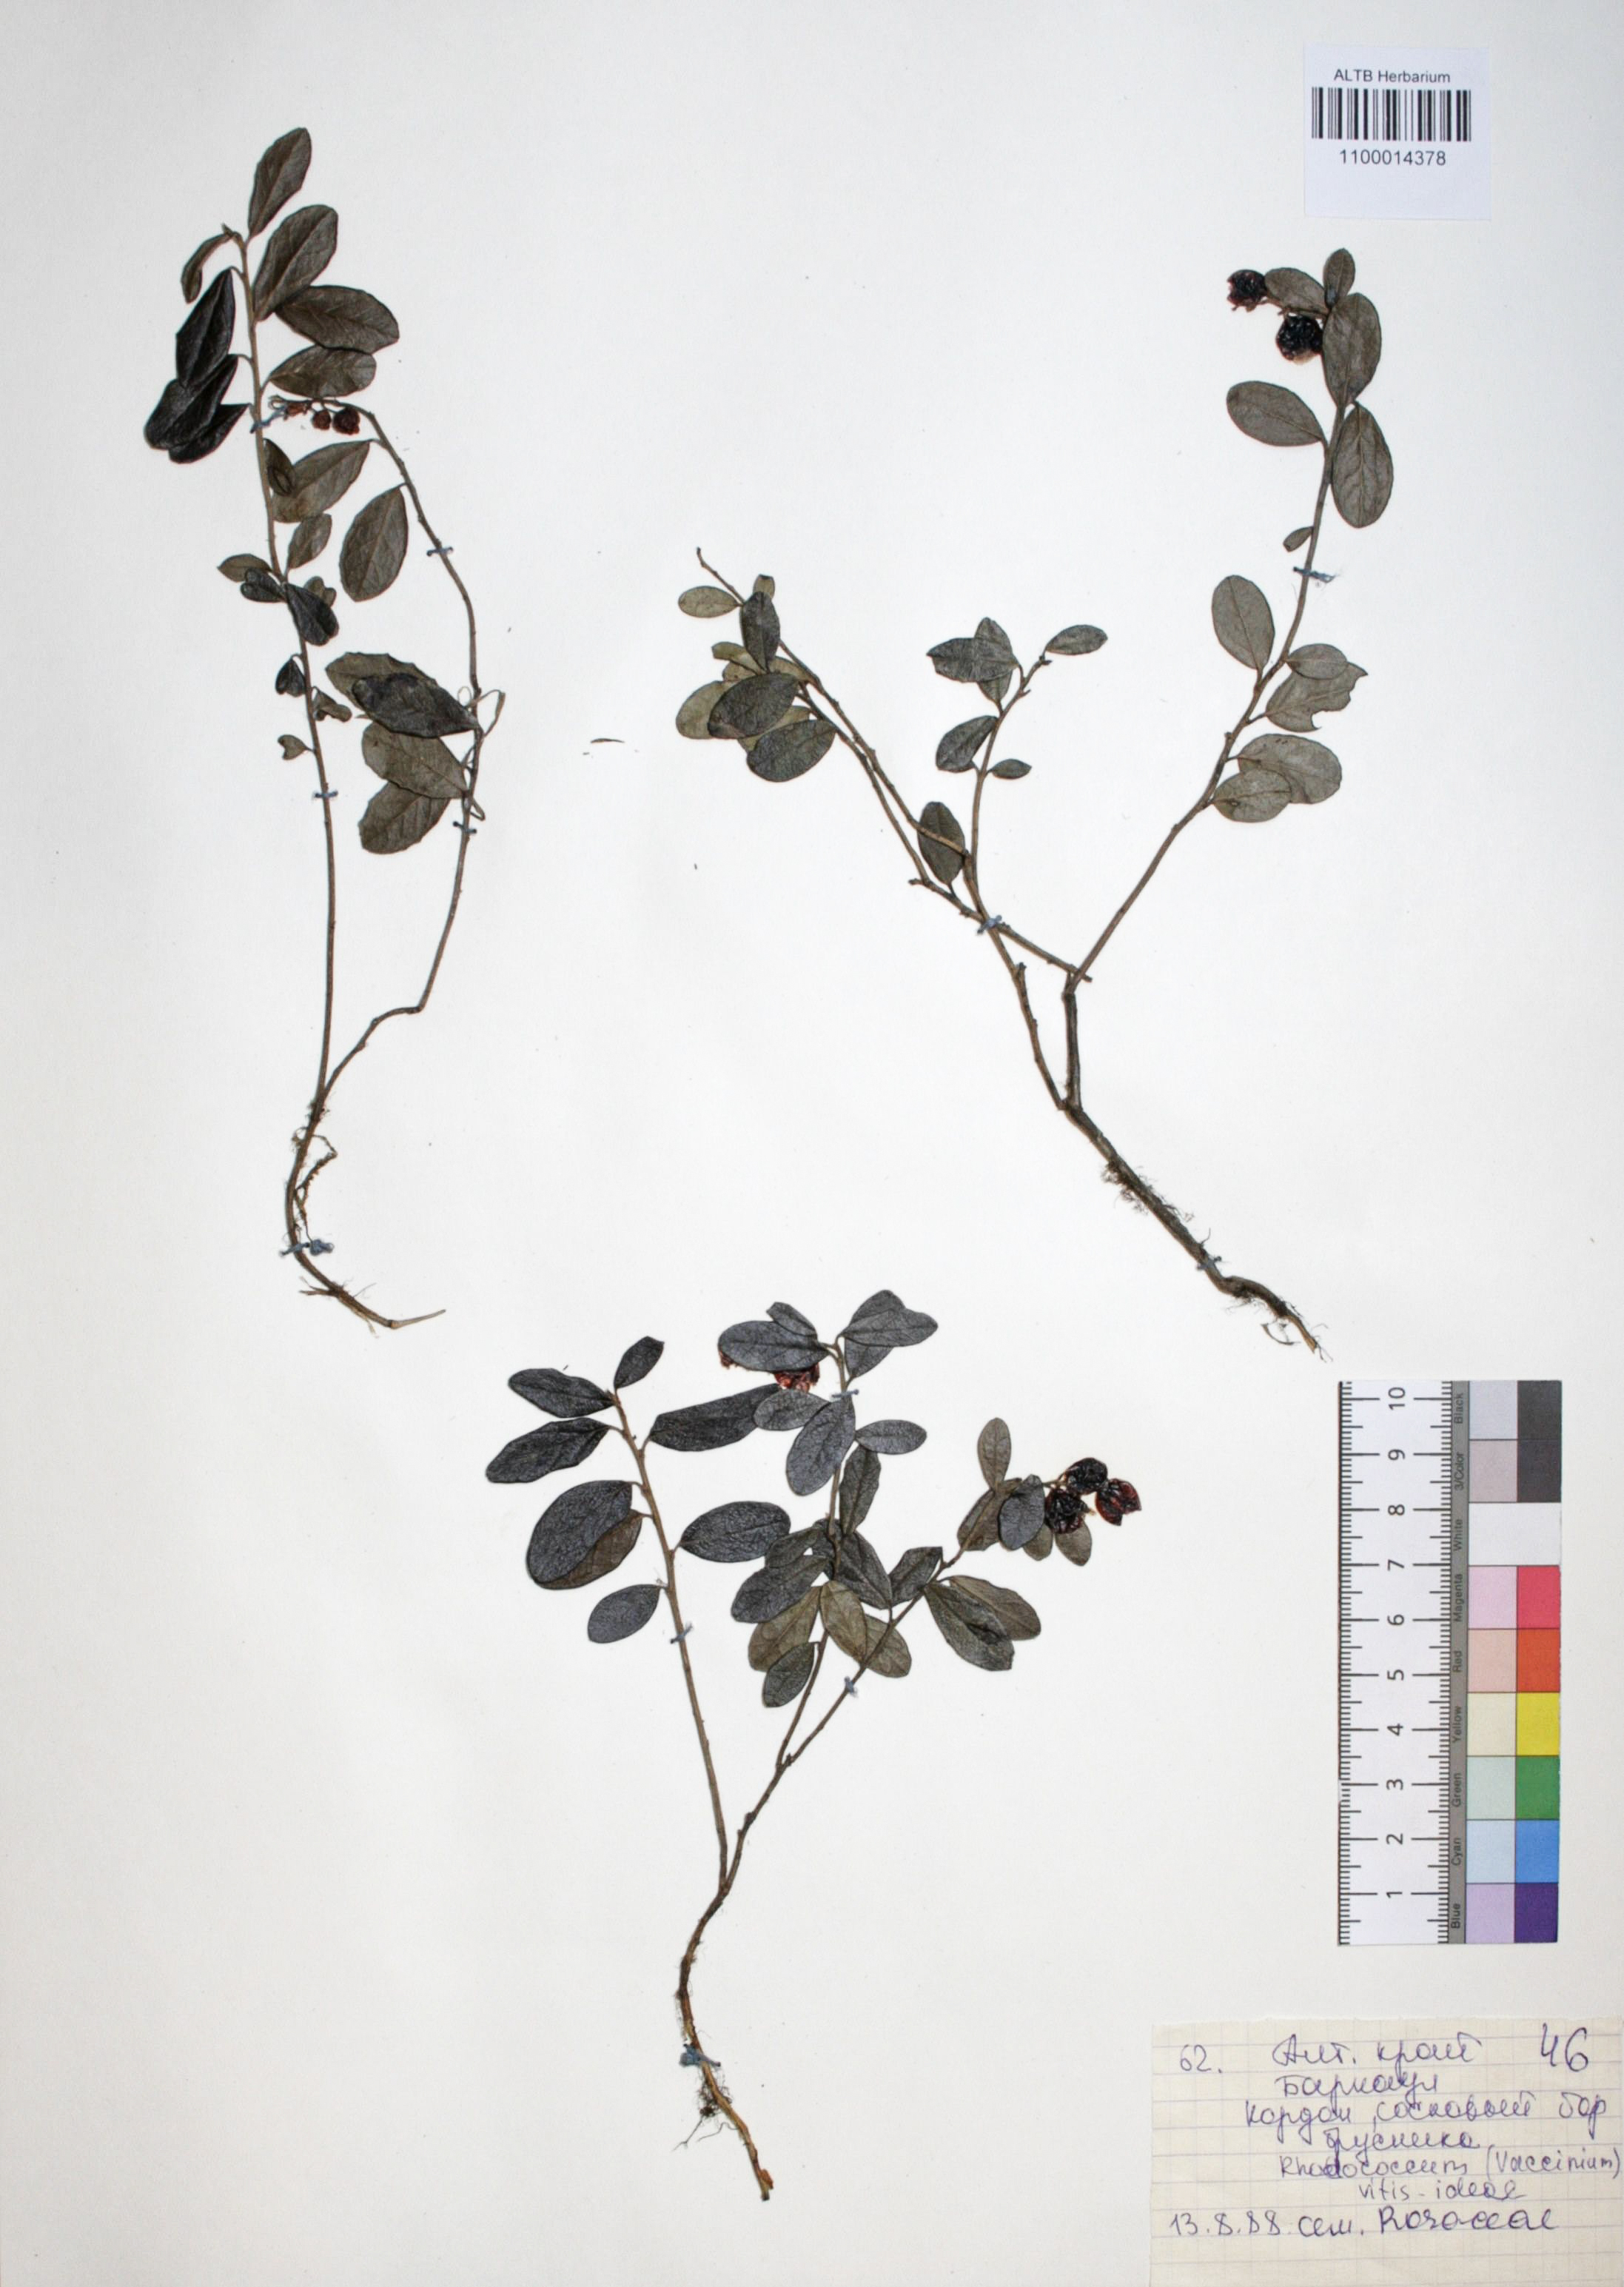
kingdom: Plantae
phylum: Tracheophyta
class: Magnoliopsida
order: Ericales
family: Ericaceae
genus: Vaccinium
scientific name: Vaccinium vitis-idaea
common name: Cowberry
